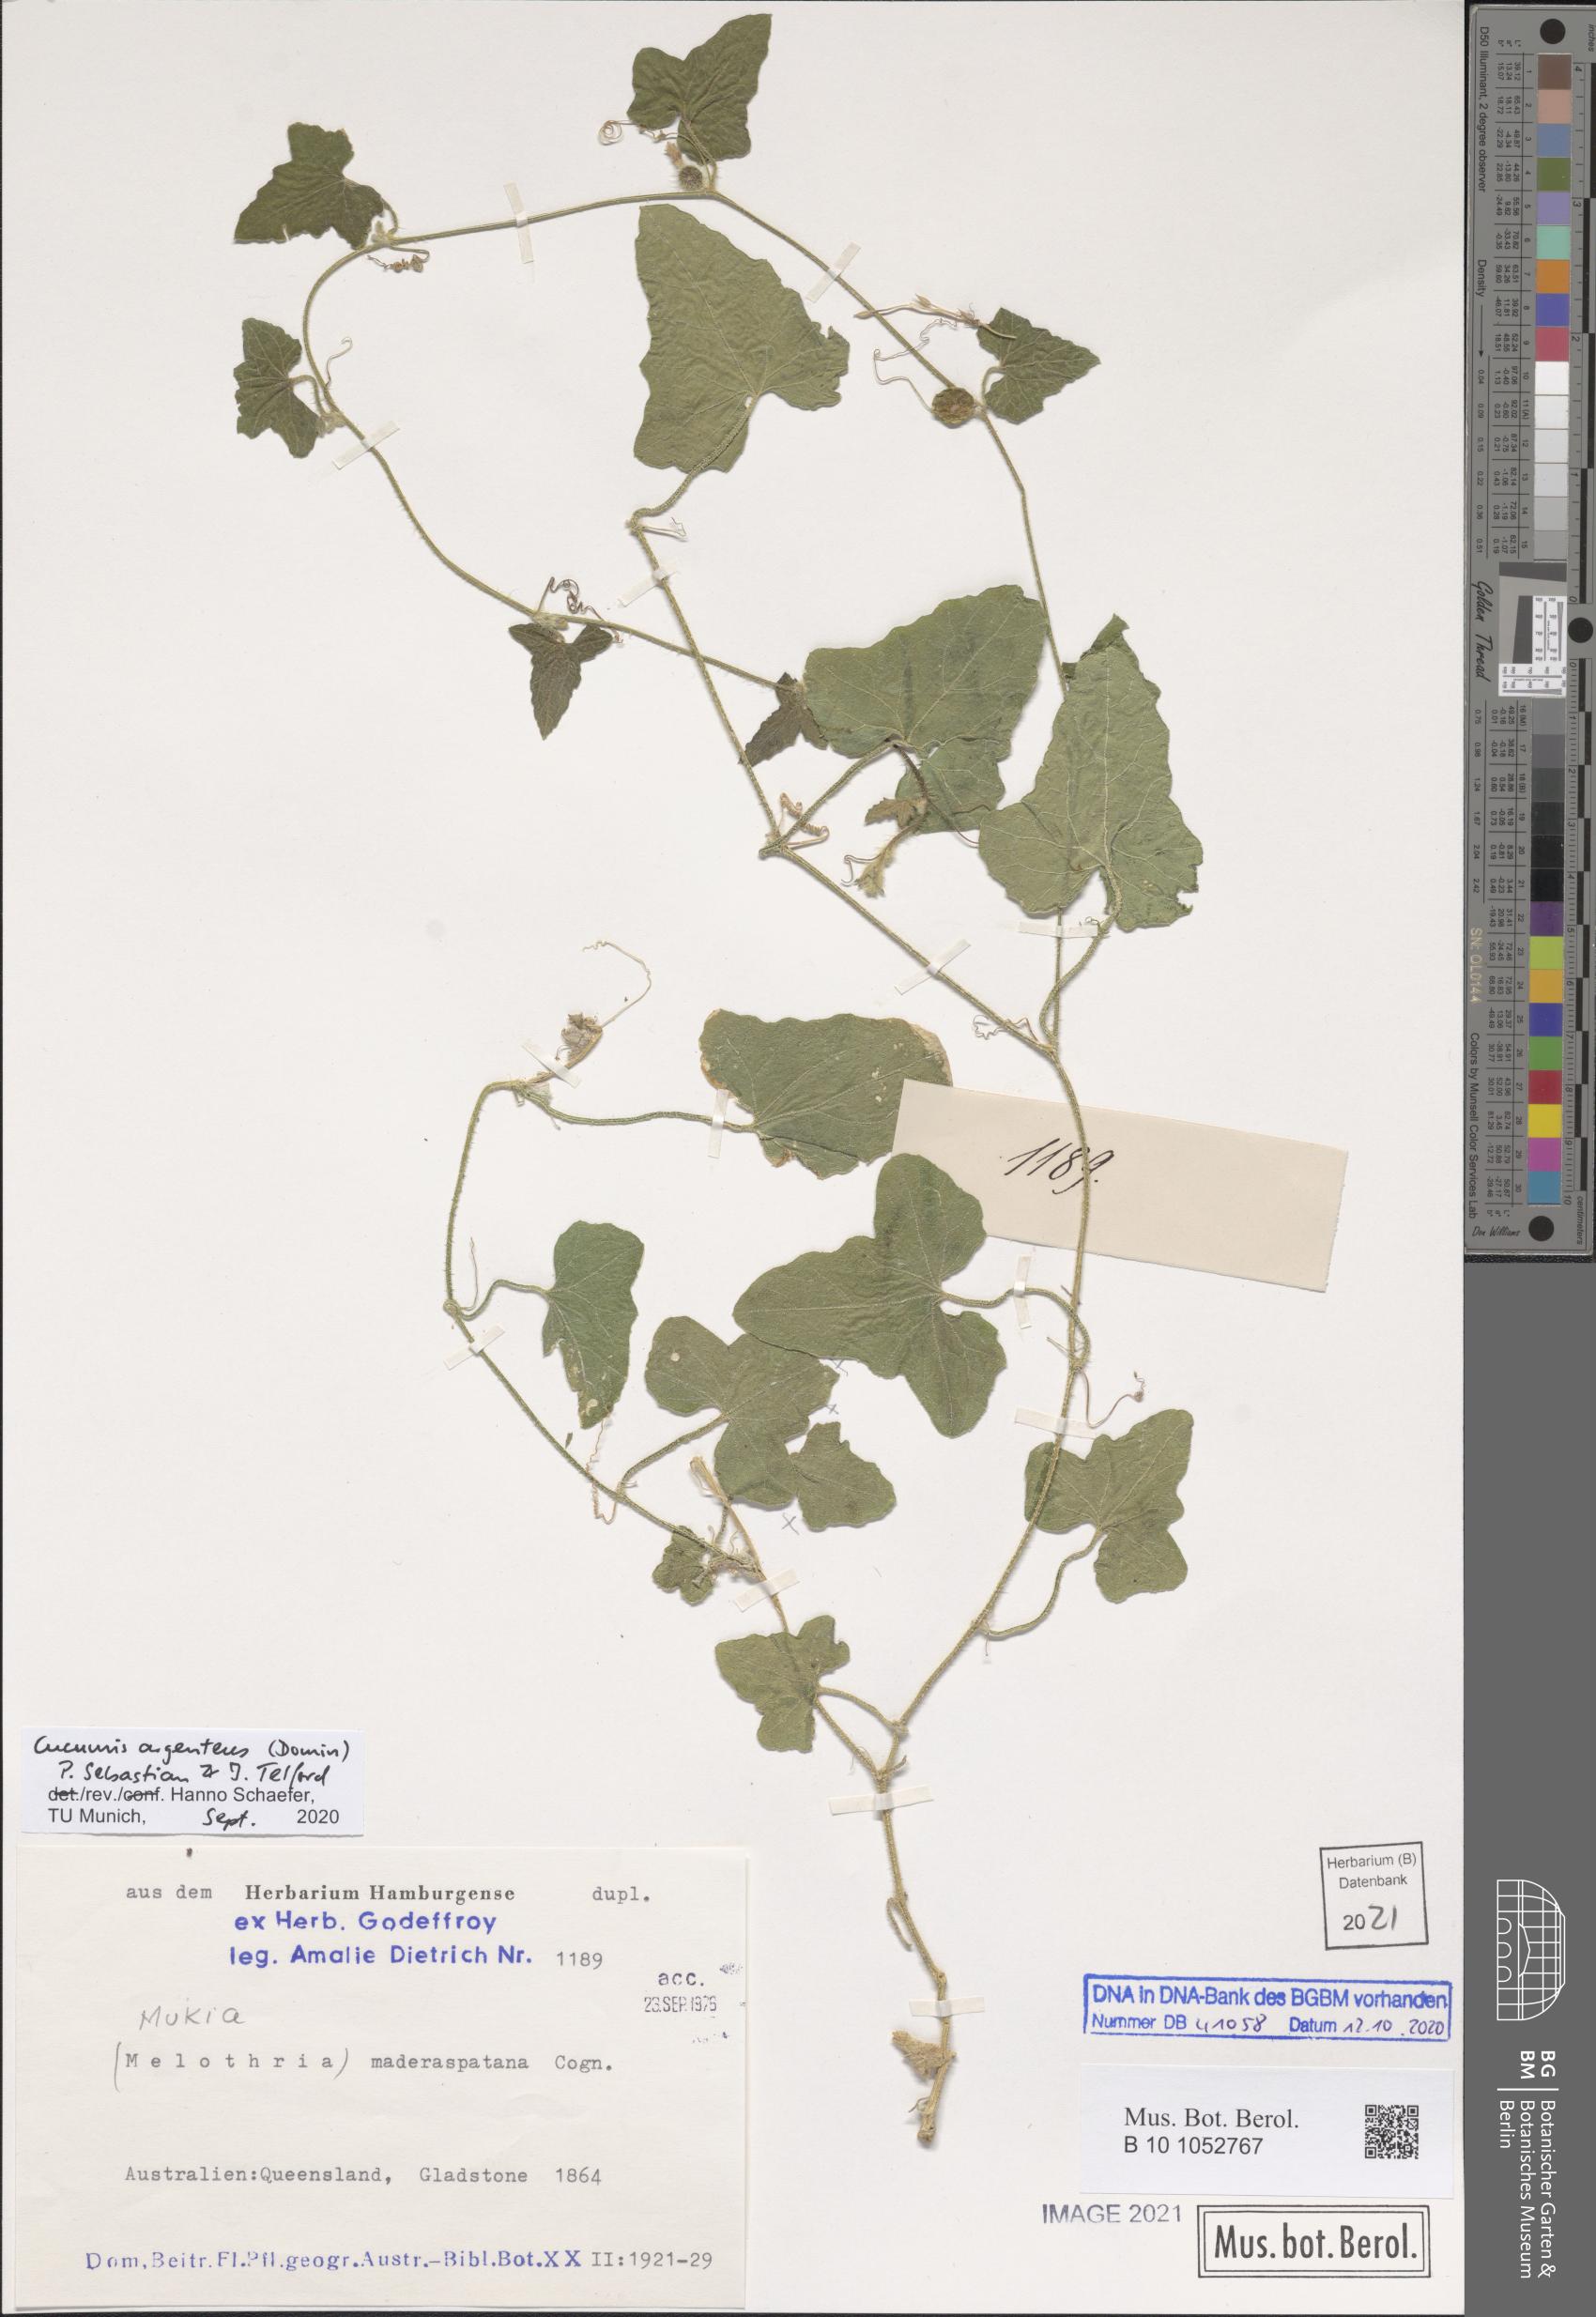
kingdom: Plantae
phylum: Tracheophyta
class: Magnoliopsida
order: Cucurbitales
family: Cucurbitaceae
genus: Cucumis
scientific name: Cucumis argenteus
